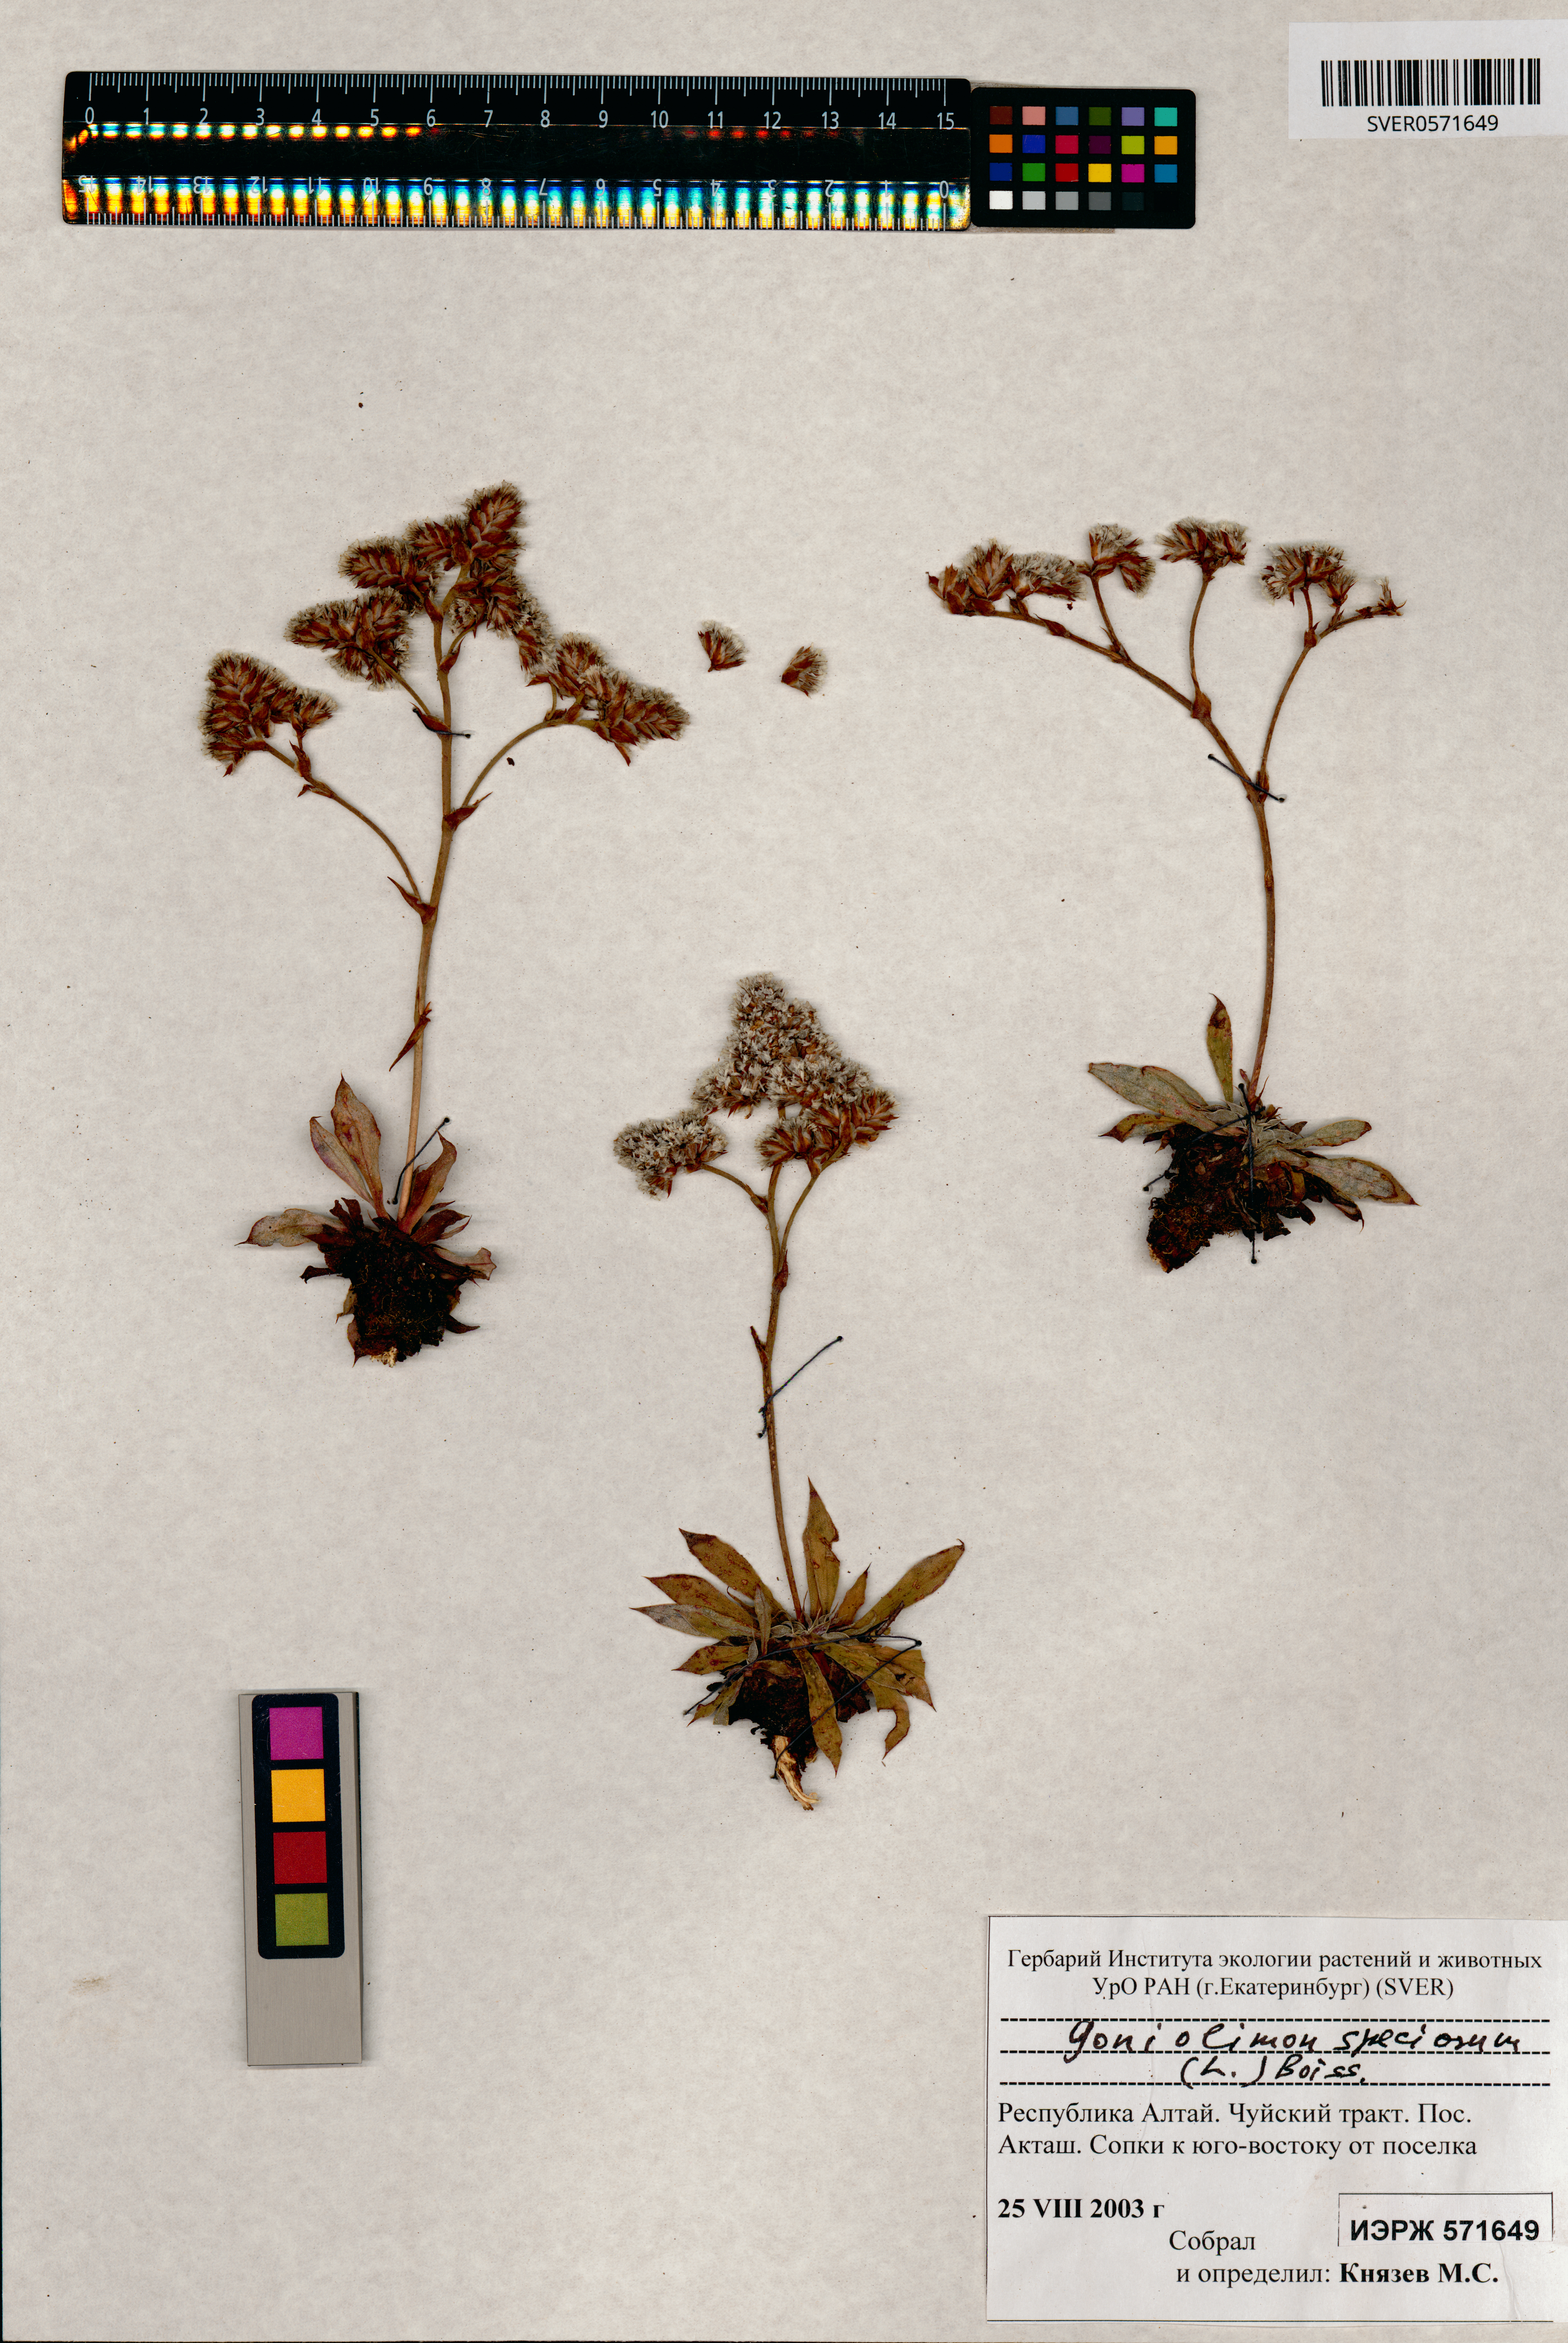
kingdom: Plantae
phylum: Tracheophyta
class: Magnoliopsida
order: Caryophyllales
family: Plumbaginaceae
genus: Goniolimon
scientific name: Goniolimon speciosum
